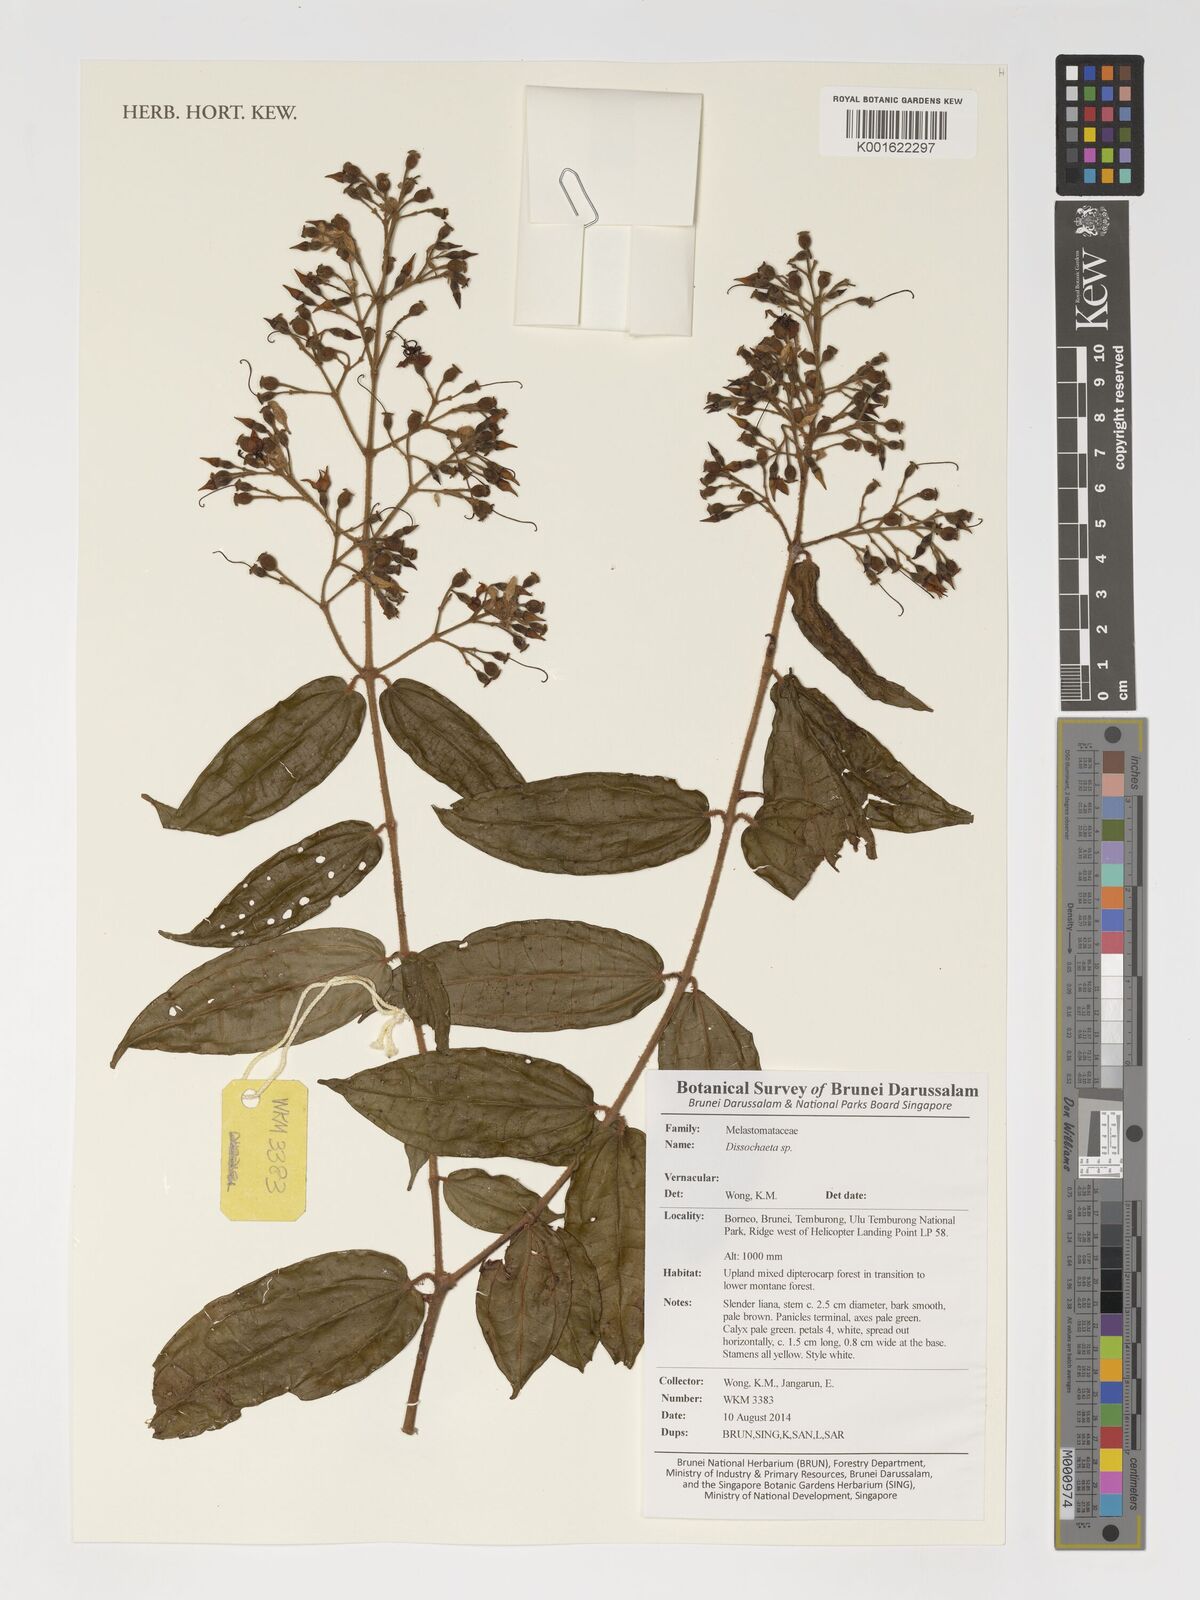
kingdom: Plantae
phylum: Tracheophyta
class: Magnoliopsida
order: Myrtales
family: Melastomataceae
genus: Dissochaeta
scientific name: Dissochaeta
